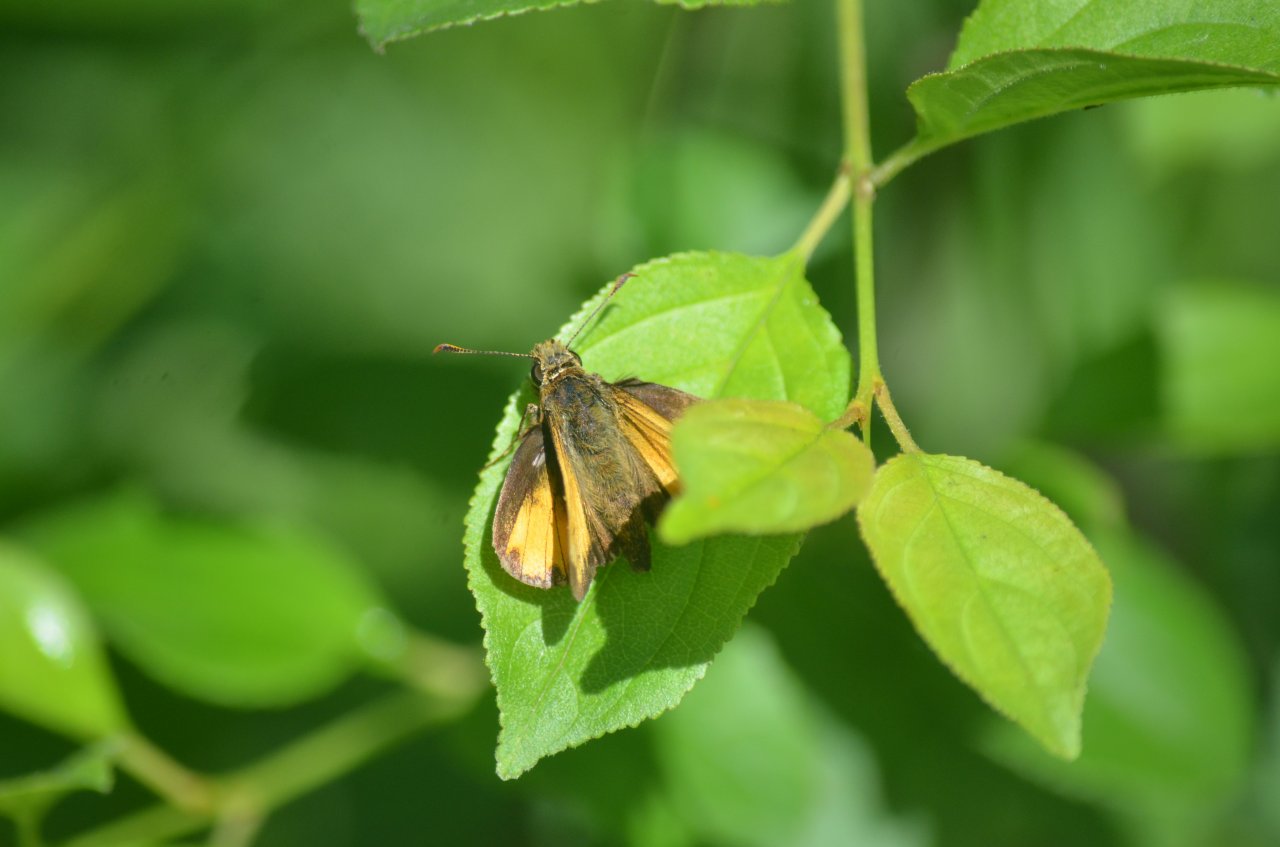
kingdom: Animalia
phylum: Arthropoda
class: Insecta
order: Lepidoptera
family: Hesperiidae
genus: Lon
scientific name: Lon hobomok
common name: Hobomok Skipper
